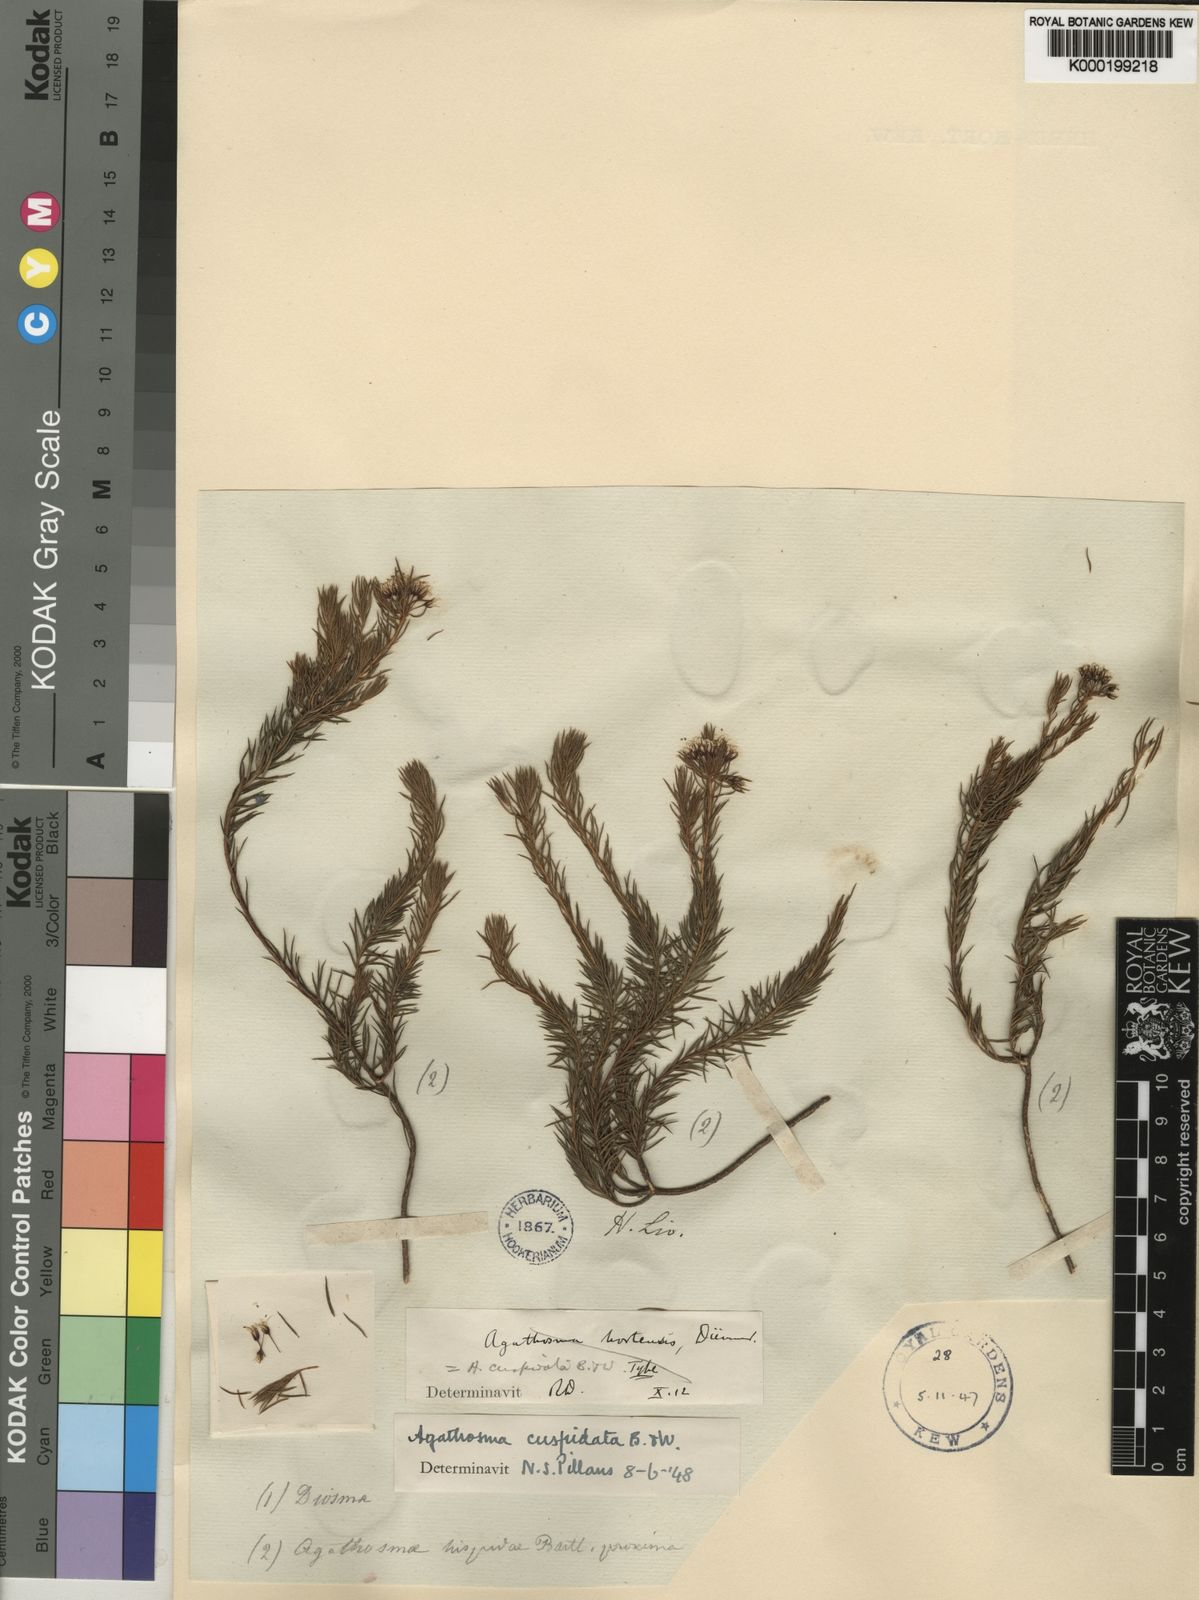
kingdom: Plantae
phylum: Tracheophyta
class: Magnoliopsida
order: Sapindales
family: Rutaceae
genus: Agathosma
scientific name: Agathosma
